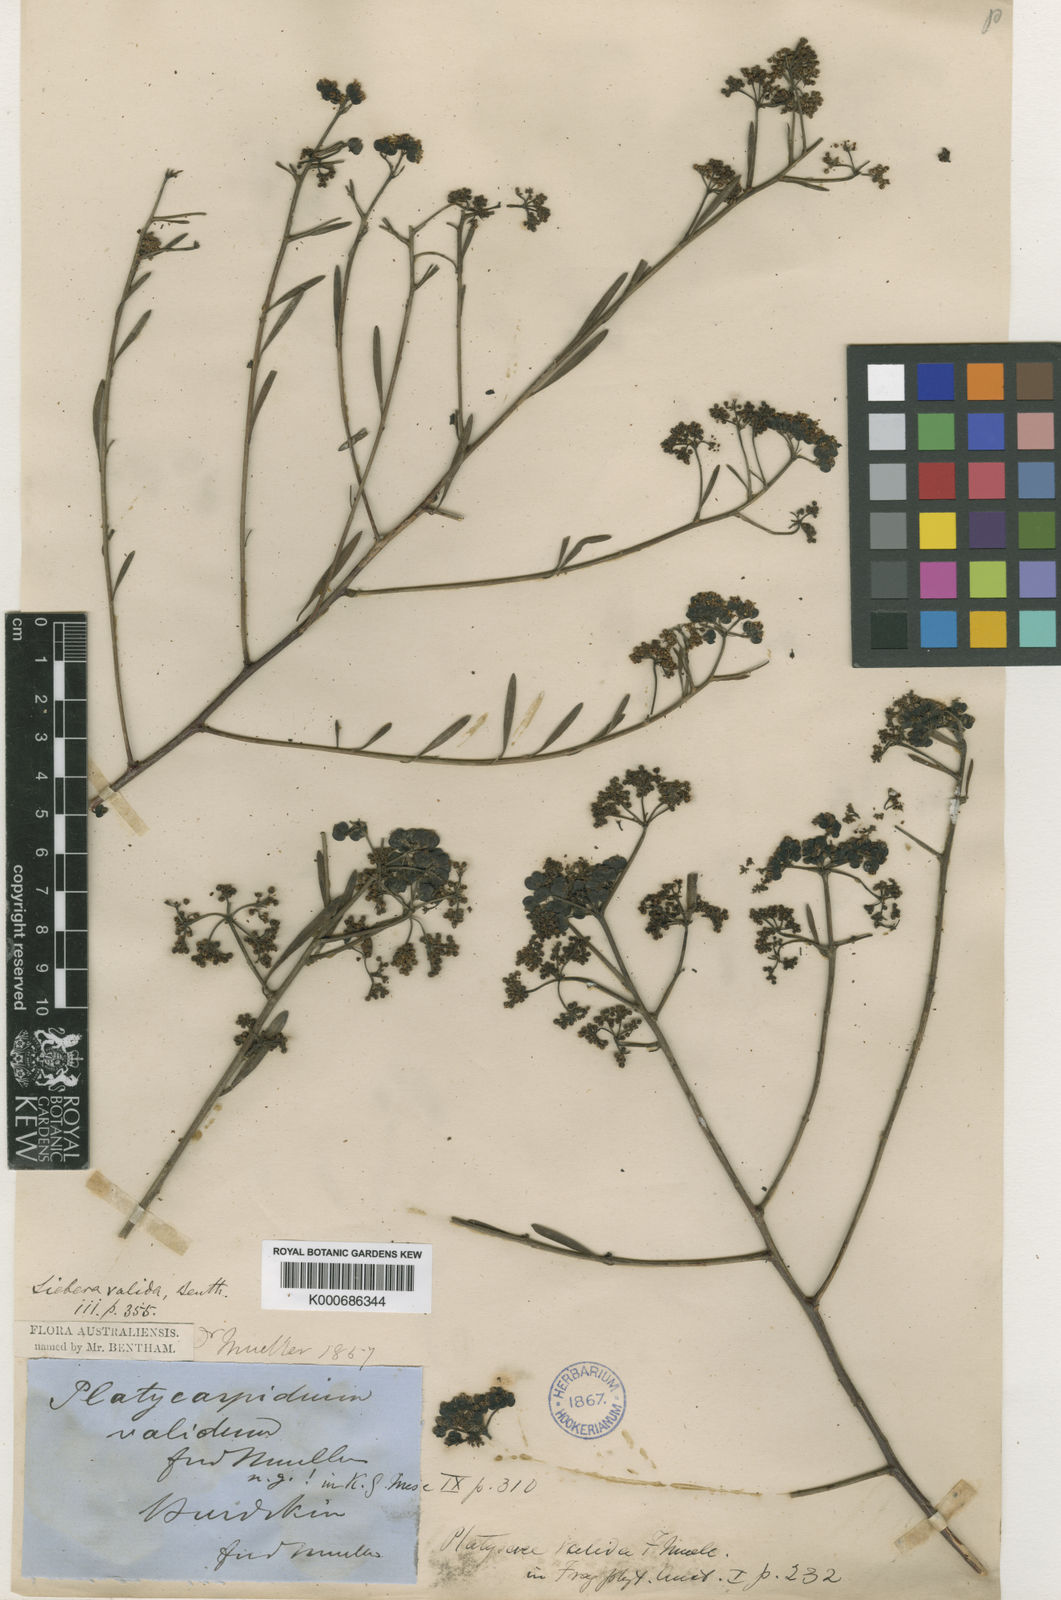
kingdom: Plantae
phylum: Tracheophyta
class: Magnoliopsida
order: Apiales
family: Apiaceae
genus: Platysace
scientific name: Platysace valida
